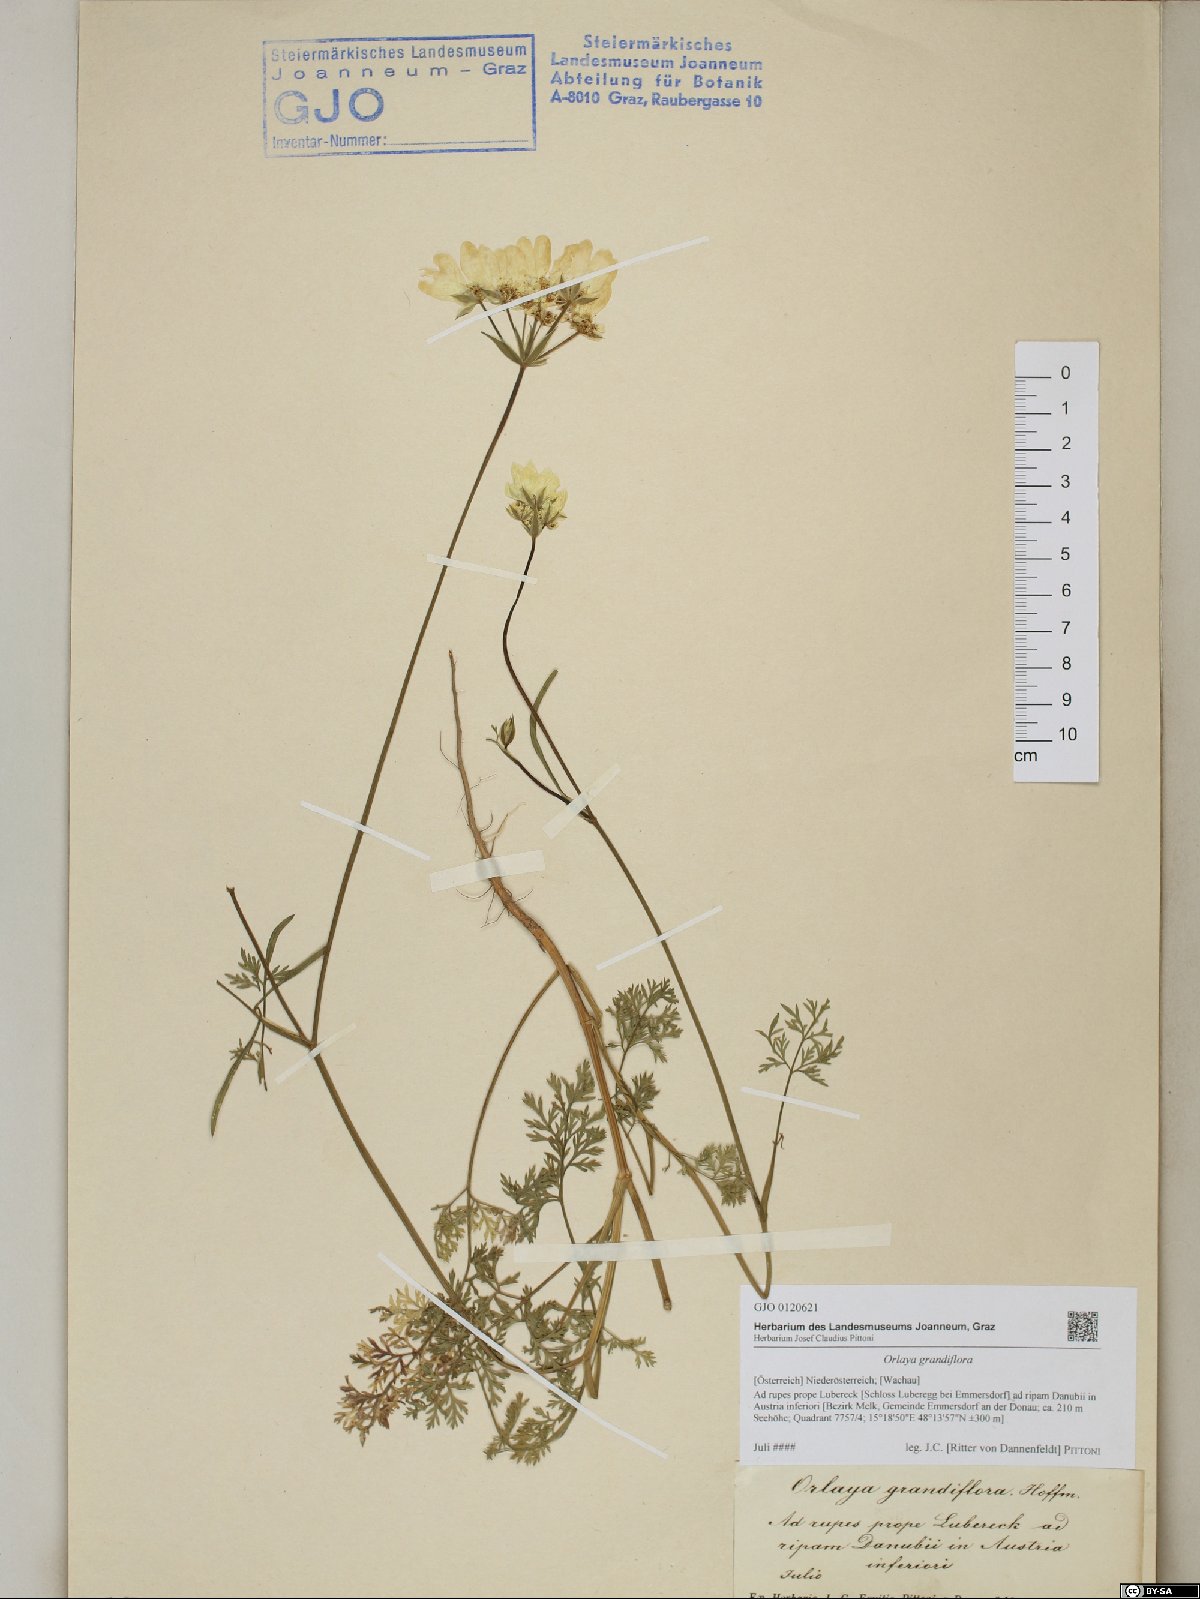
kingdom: Plantae
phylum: Tracheophyta
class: Magnoliopsida
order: Apiales
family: Apiaceae
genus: Orlaya
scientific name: Orlaya grandiflora
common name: White lace flower
